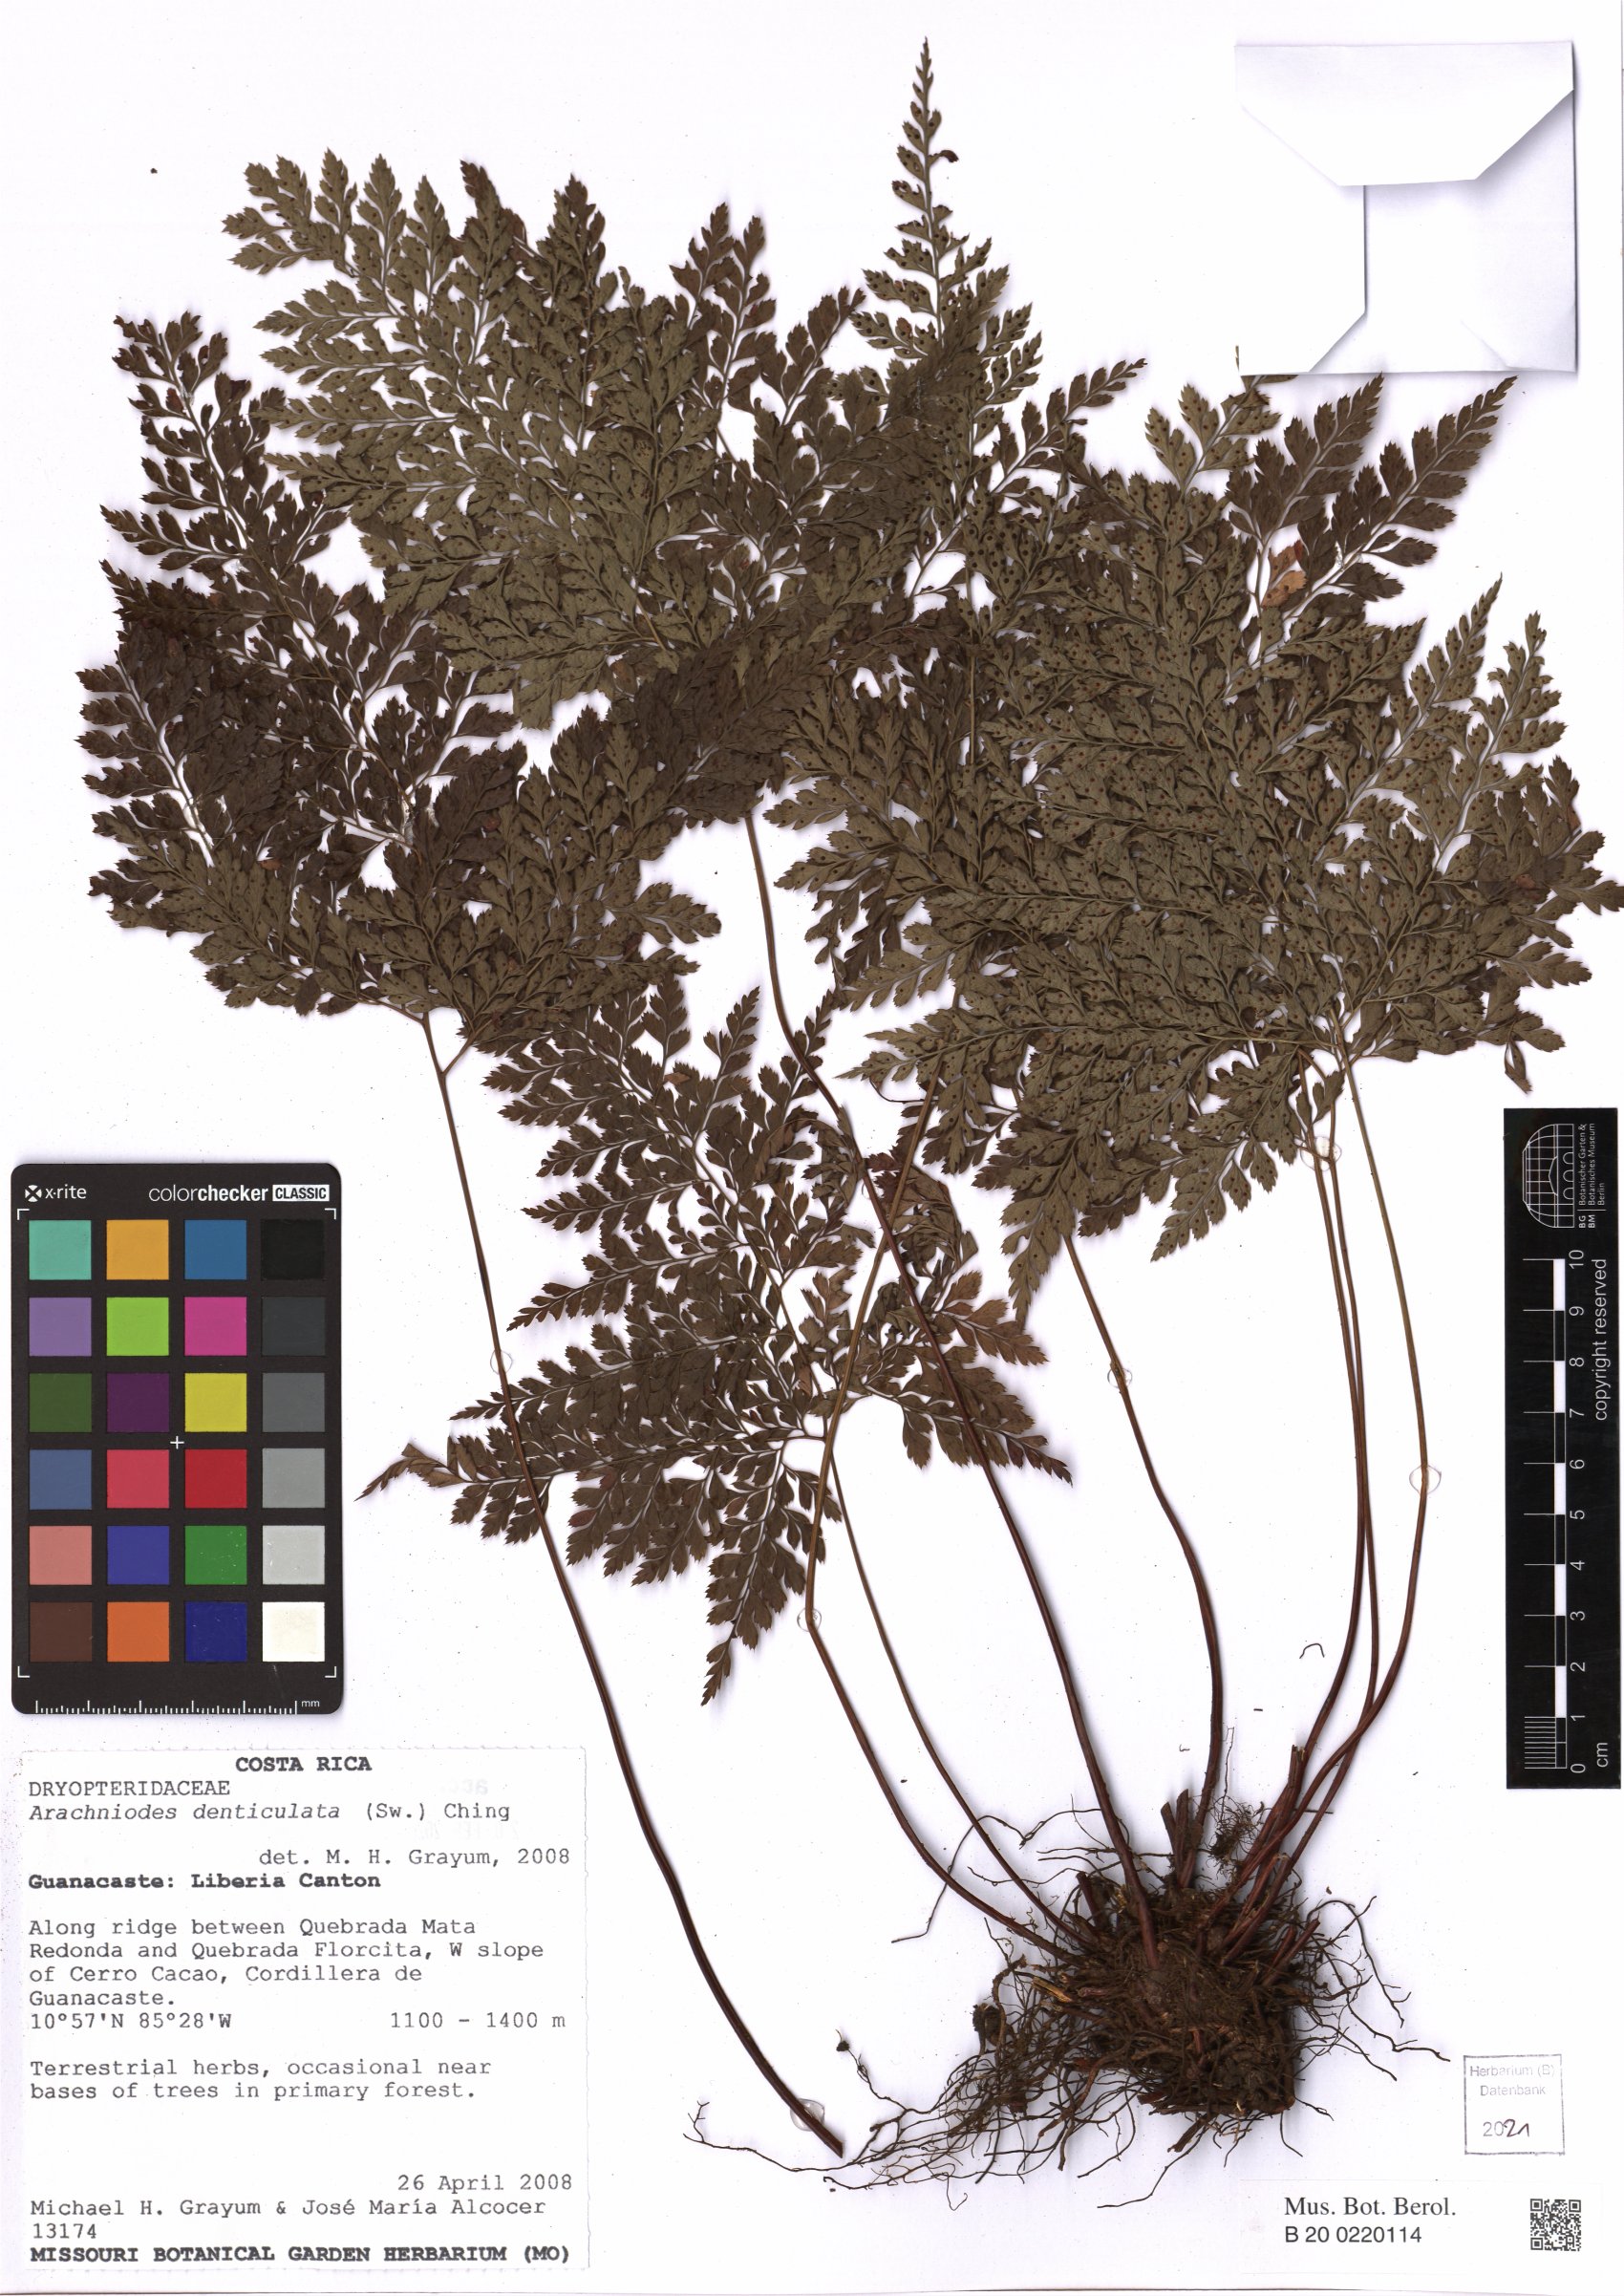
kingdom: Plantae
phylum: Tracheophyta
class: Polypodiopsida
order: Polypodiales
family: Dryopteridaceae
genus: Arachniodes
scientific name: Arachniodes denticulata
